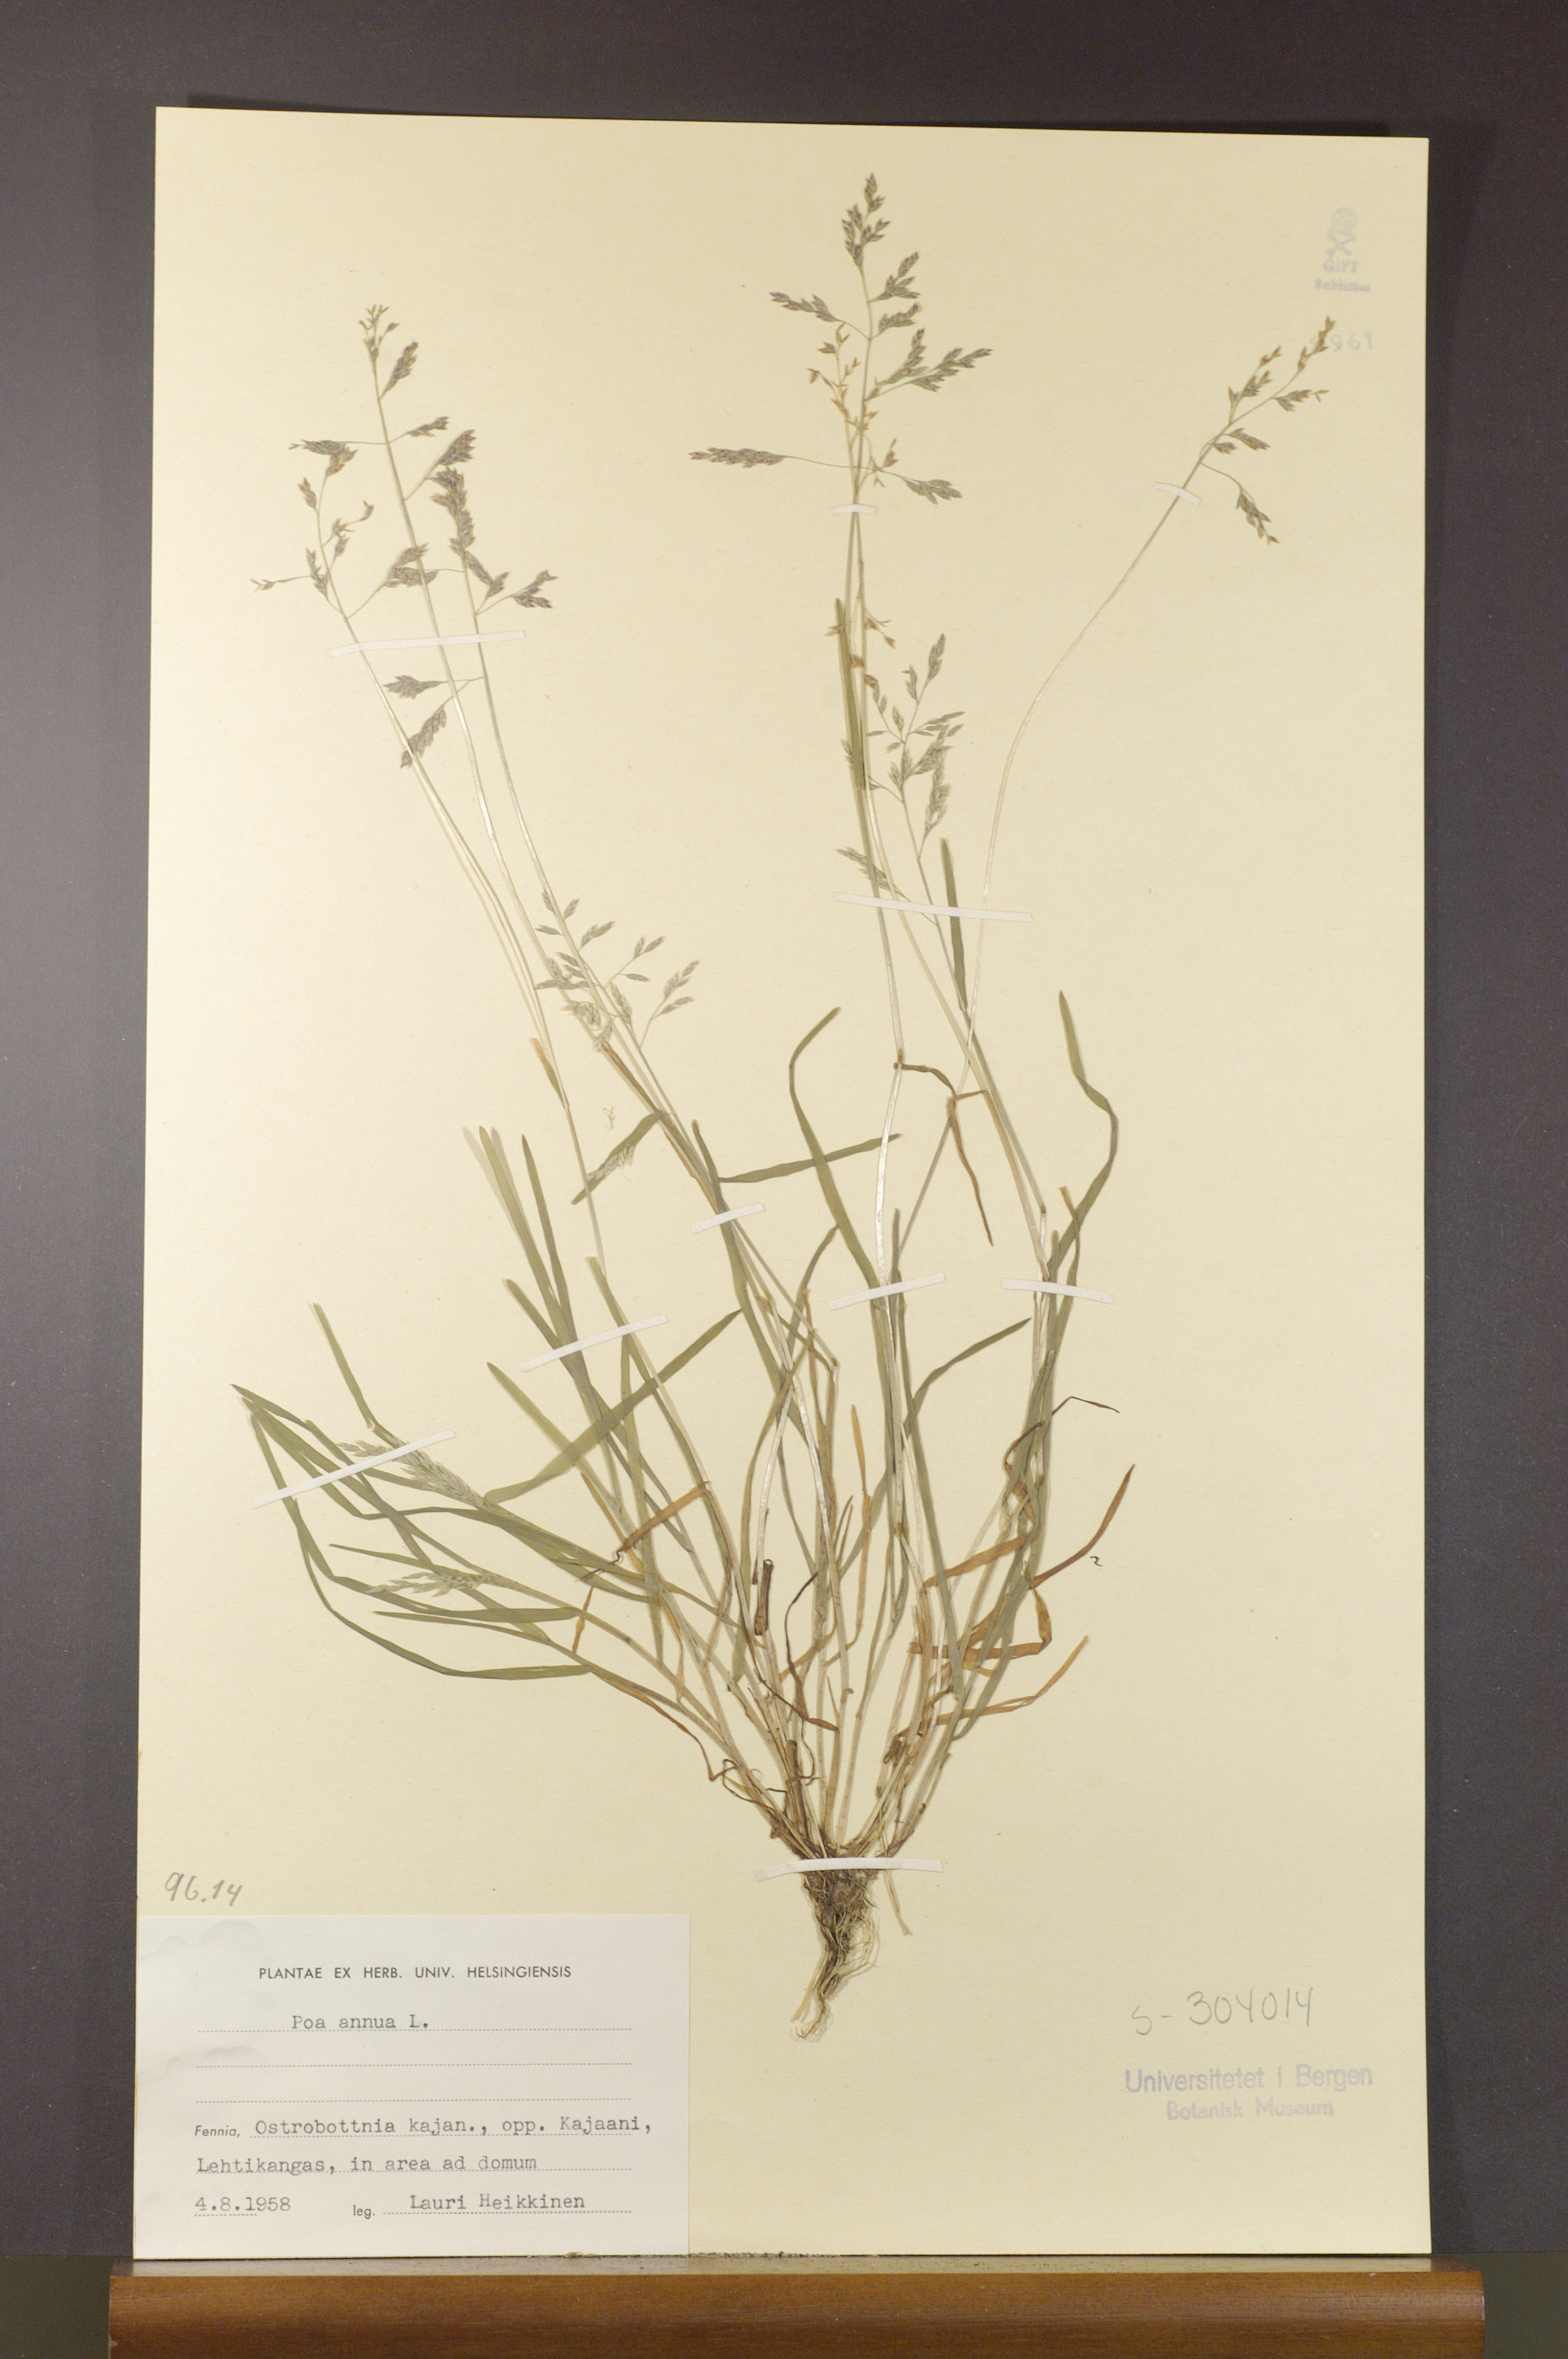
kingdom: Plantae
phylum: Tracheophyta
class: Liliopsida
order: Poales
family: Poaceae
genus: Poa
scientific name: Poa annua
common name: Annual bluegrass
